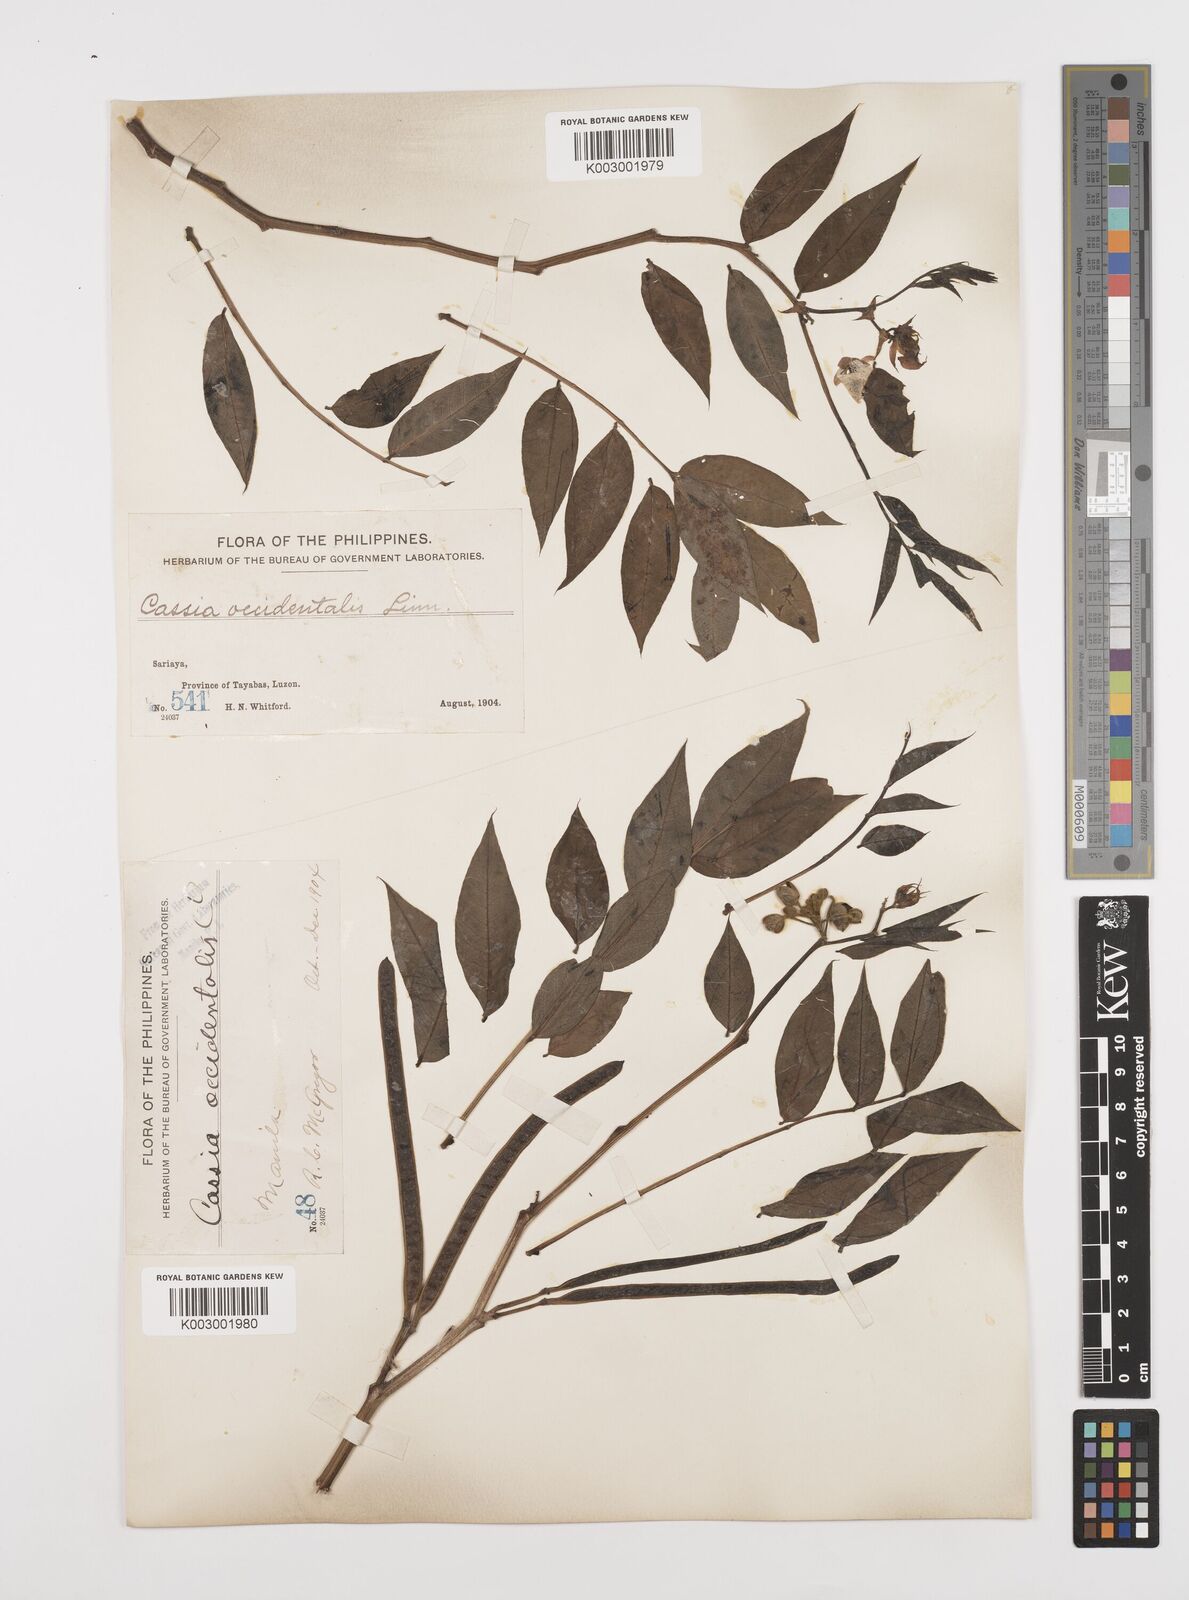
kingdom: Plantae
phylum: Tracheophyta
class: Magnoliopsida
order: Fabales
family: Fabaceae
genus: Senna
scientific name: Senna occidentalis
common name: Septicweed
